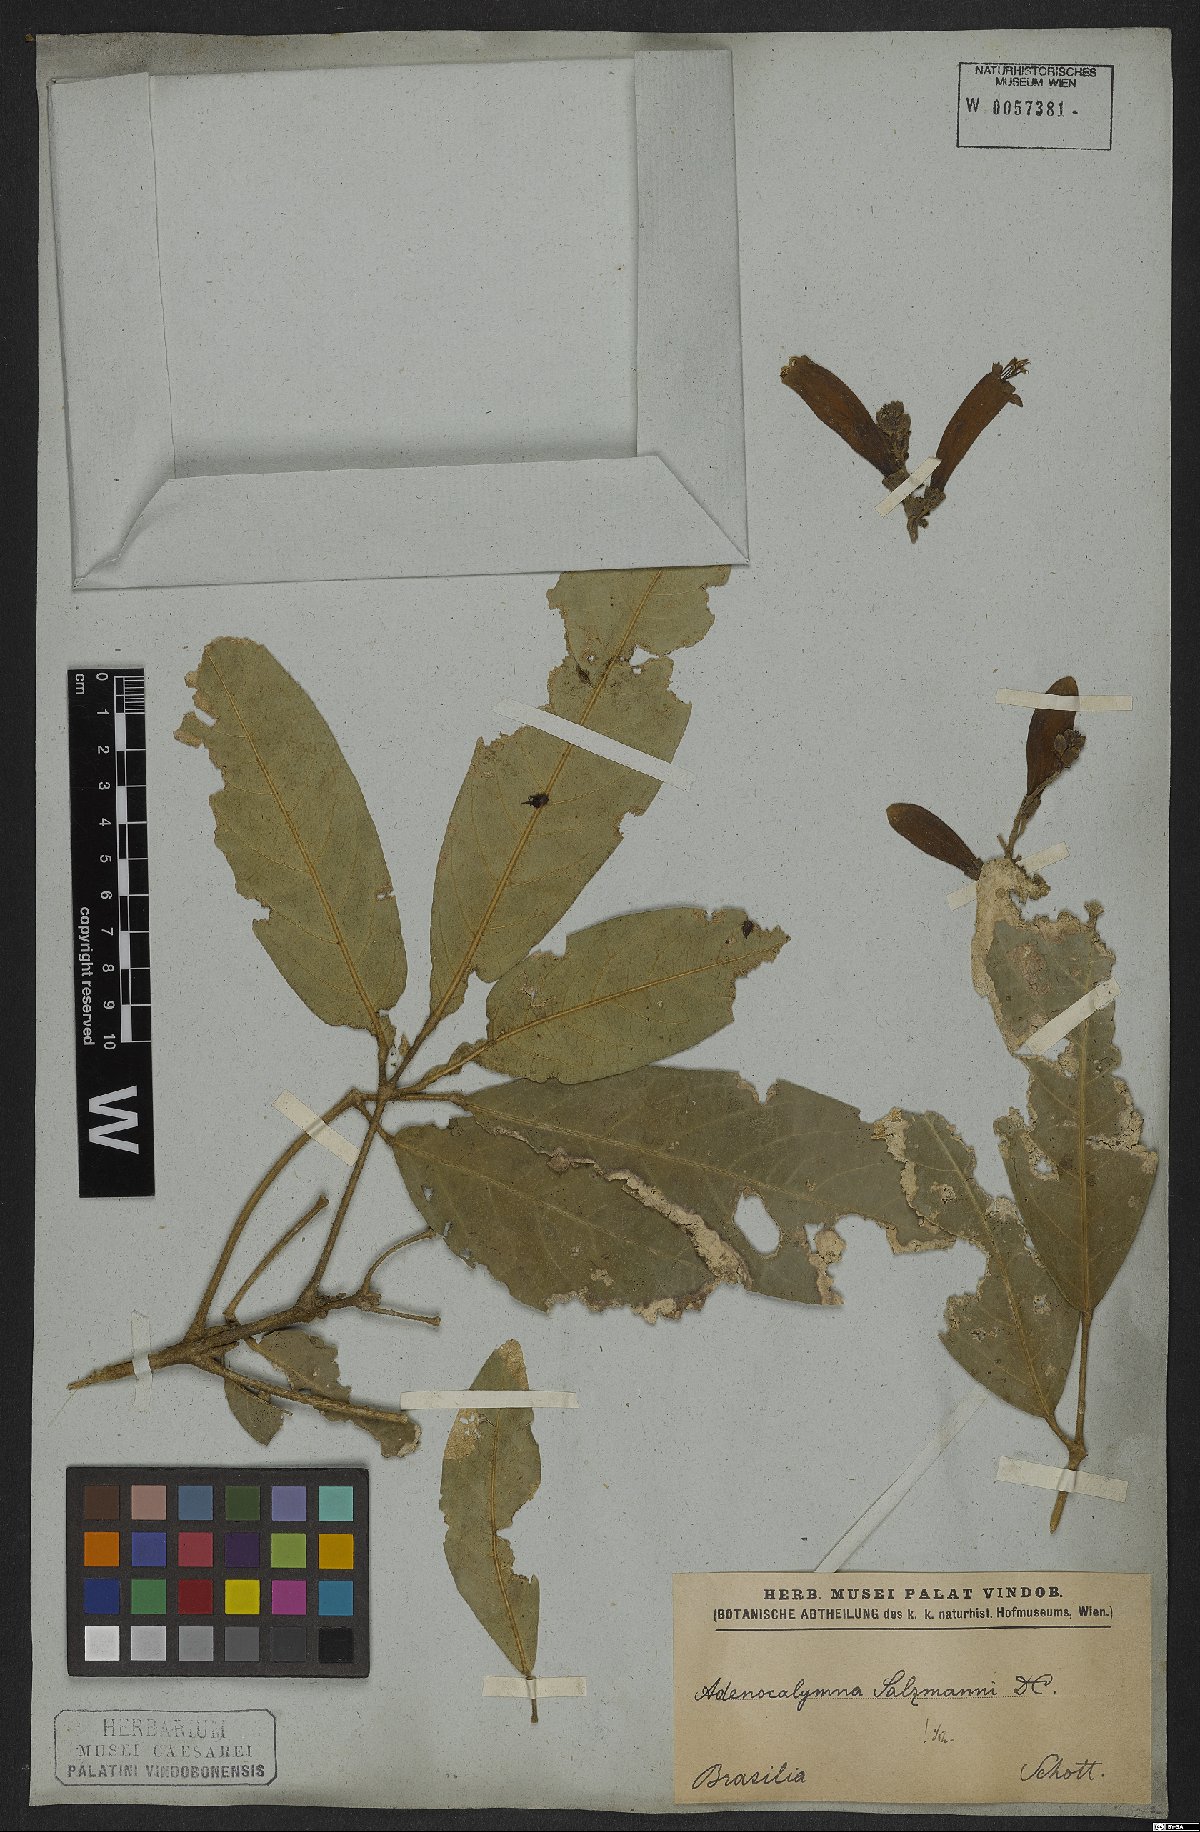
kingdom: Plantae
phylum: Tracheophyta
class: Magnoliopsida
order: Lamiales
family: Bignoniaceae
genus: Adenocalymma
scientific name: Adenocalymma coriaceum
